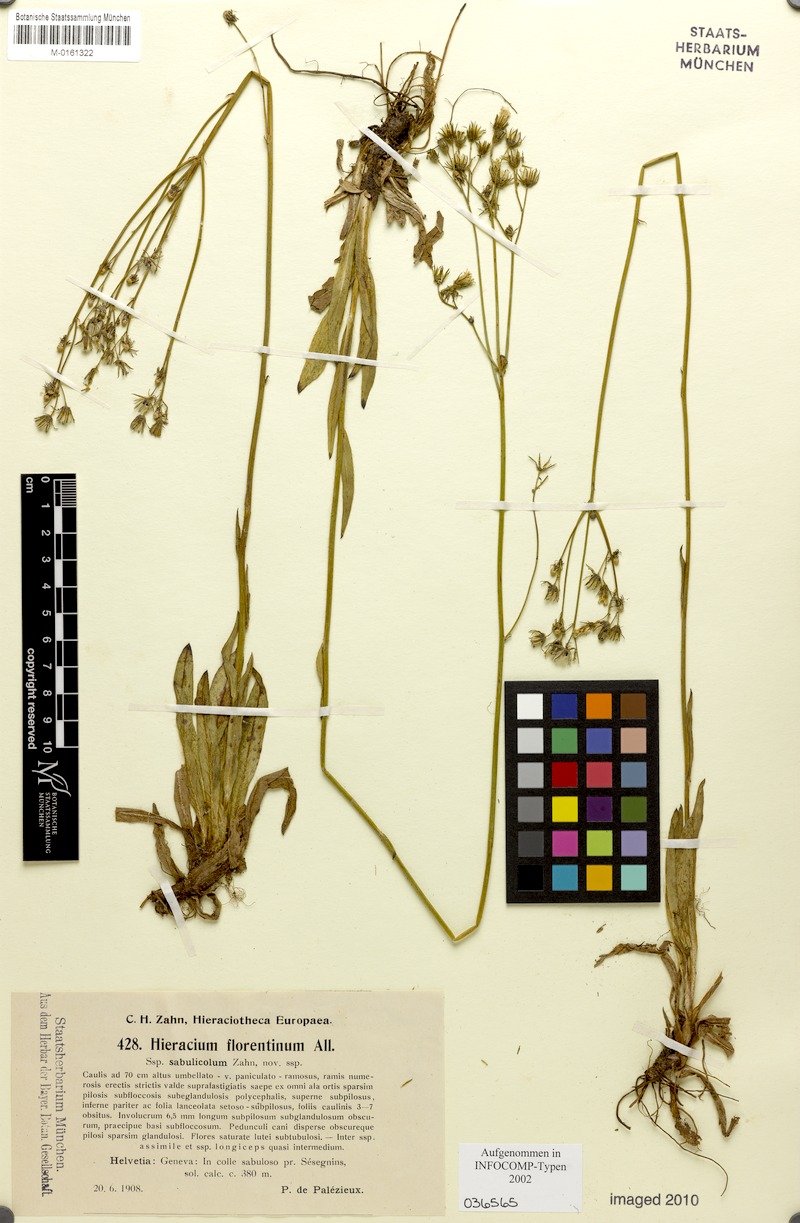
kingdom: Plantae
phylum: Tracheophyta
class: Magnoliopsida
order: Asterales
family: Asteraceae
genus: Pilosella
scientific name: Pilosella piloselloides
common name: Glaucous king-devil
